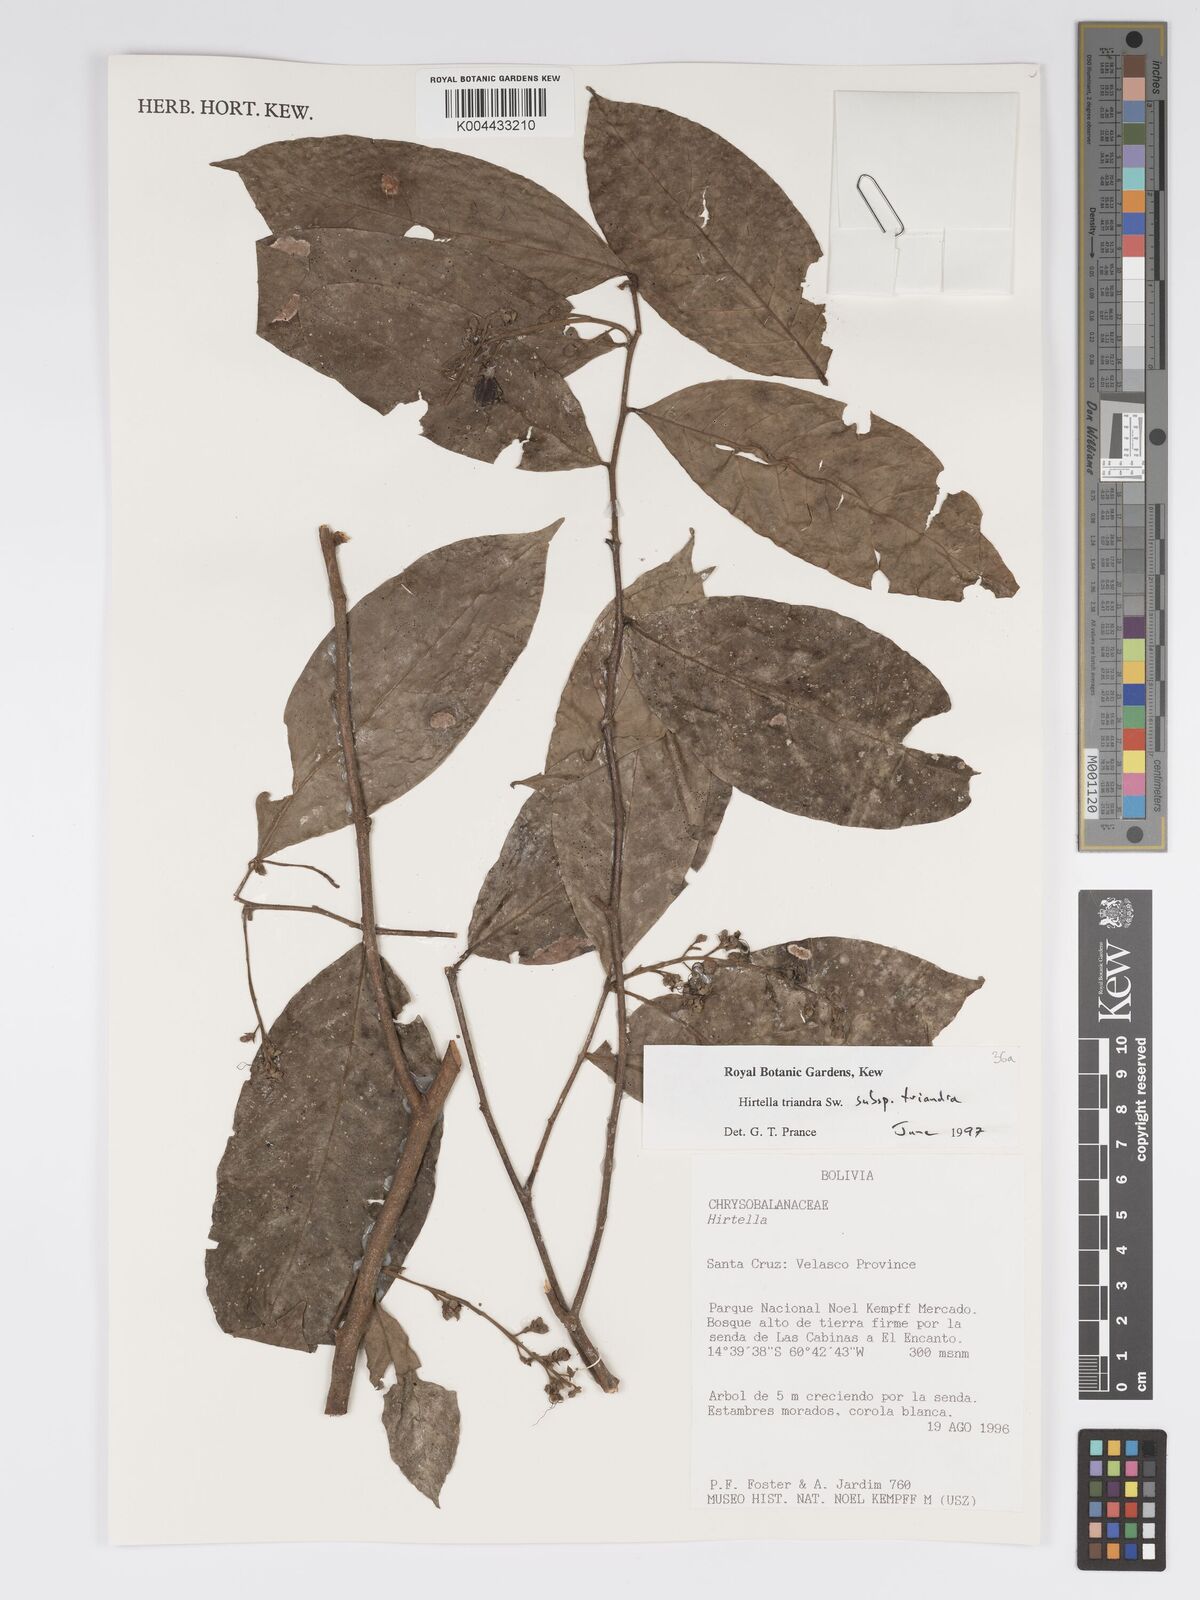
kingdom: Plantae
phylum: Tracheophyta
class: Magnoliopsida
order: Malpighiales
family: Chrysobalanaceae
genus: Hirtella
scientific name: Hirtella triandra
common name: Hairy plum
